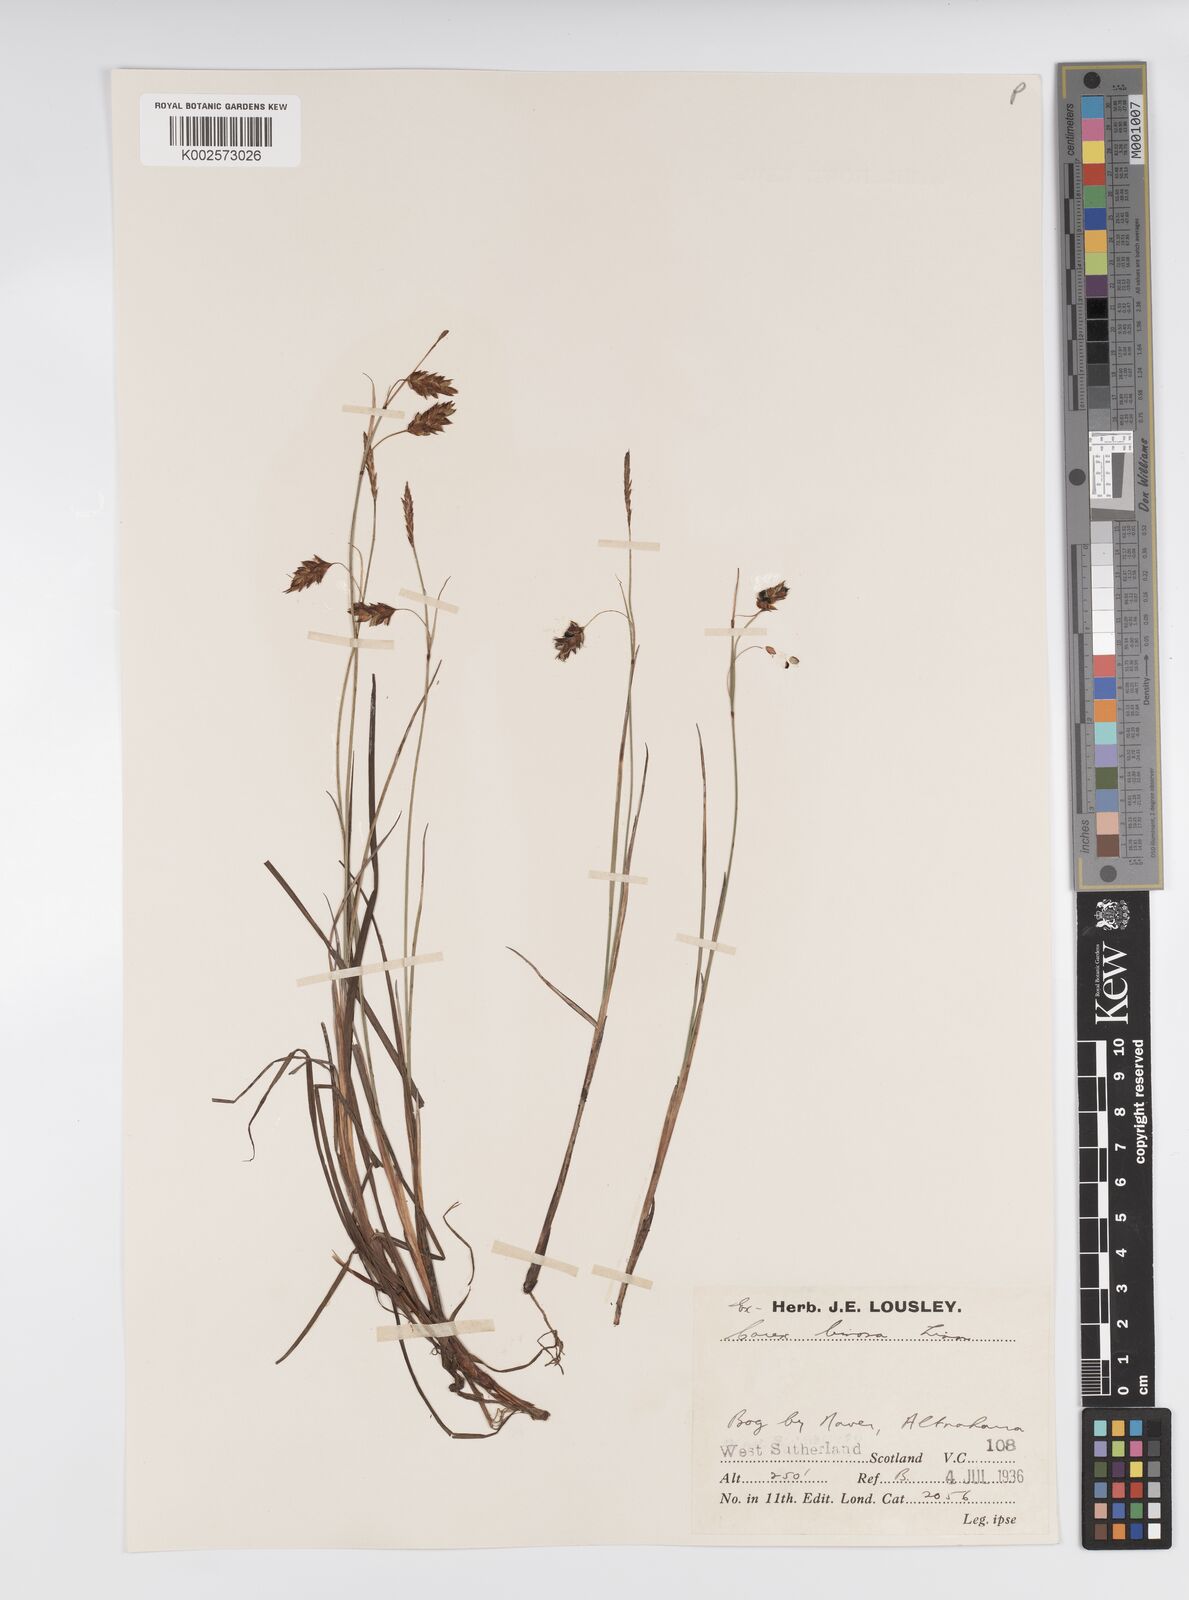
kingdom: Plantae
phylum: Tracheophyta
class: Liliopsida
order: Poales
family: Cyperaceae
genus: Carex
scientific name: Carex limosa
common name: Bog sedge
